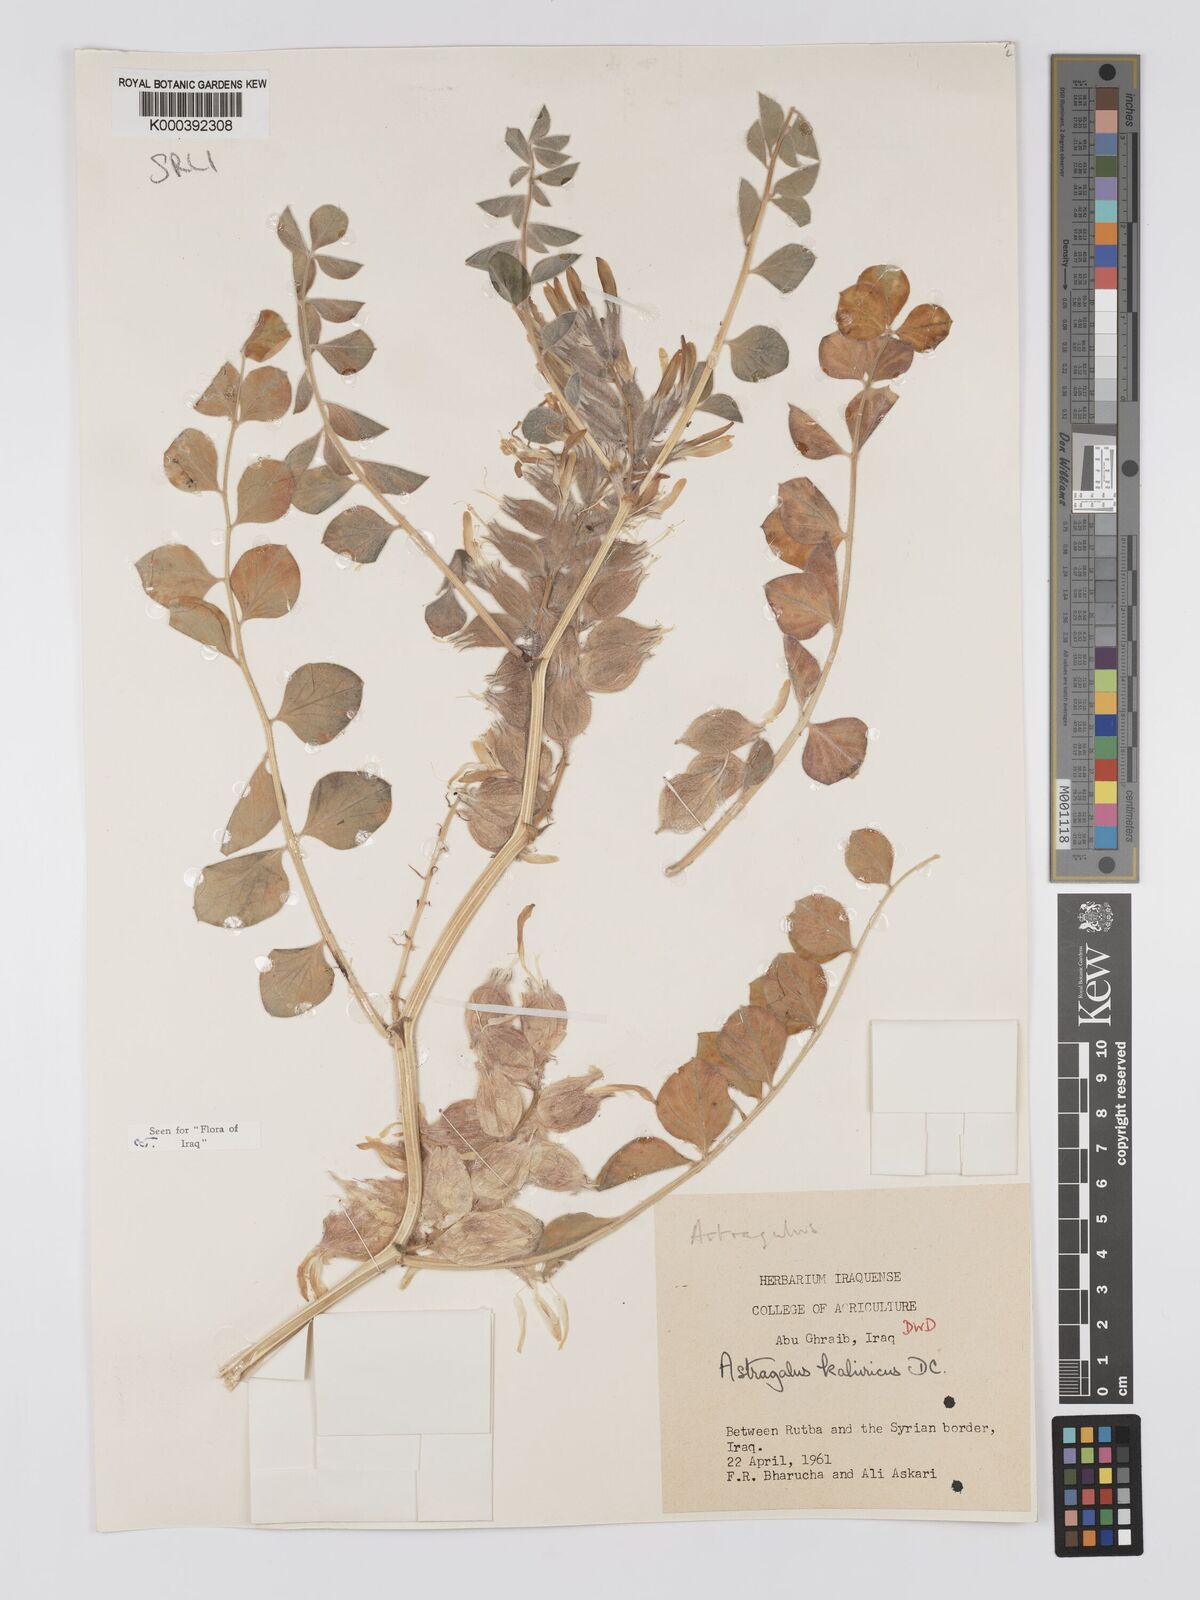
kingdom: Plantae
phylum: Tracheophyta
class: Magnoliopsida
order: Fabales
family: Fabaceae
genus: Astragalus
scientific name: Astragalus kahiricus
